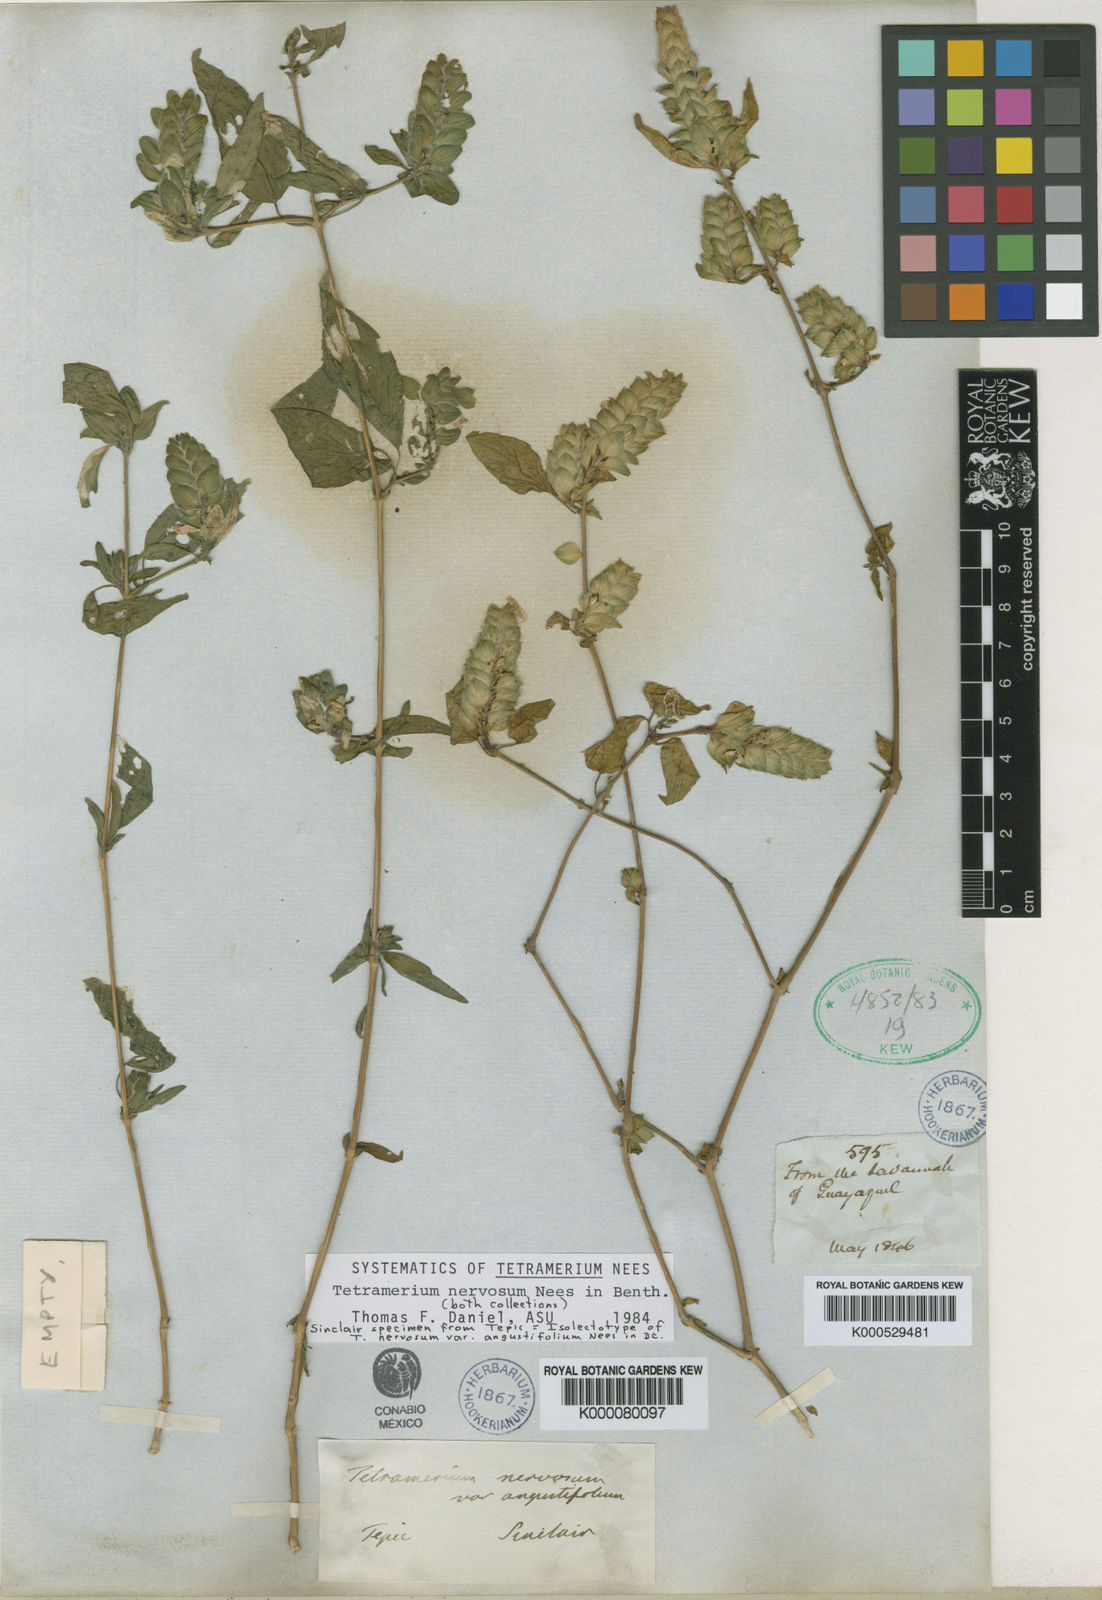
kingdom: Plantae
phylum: Tracheophyta
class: Magnoliopsida
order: Lamiales
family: Acanthaceae
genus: Tetramerium
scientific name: Tetramerium nervosum
